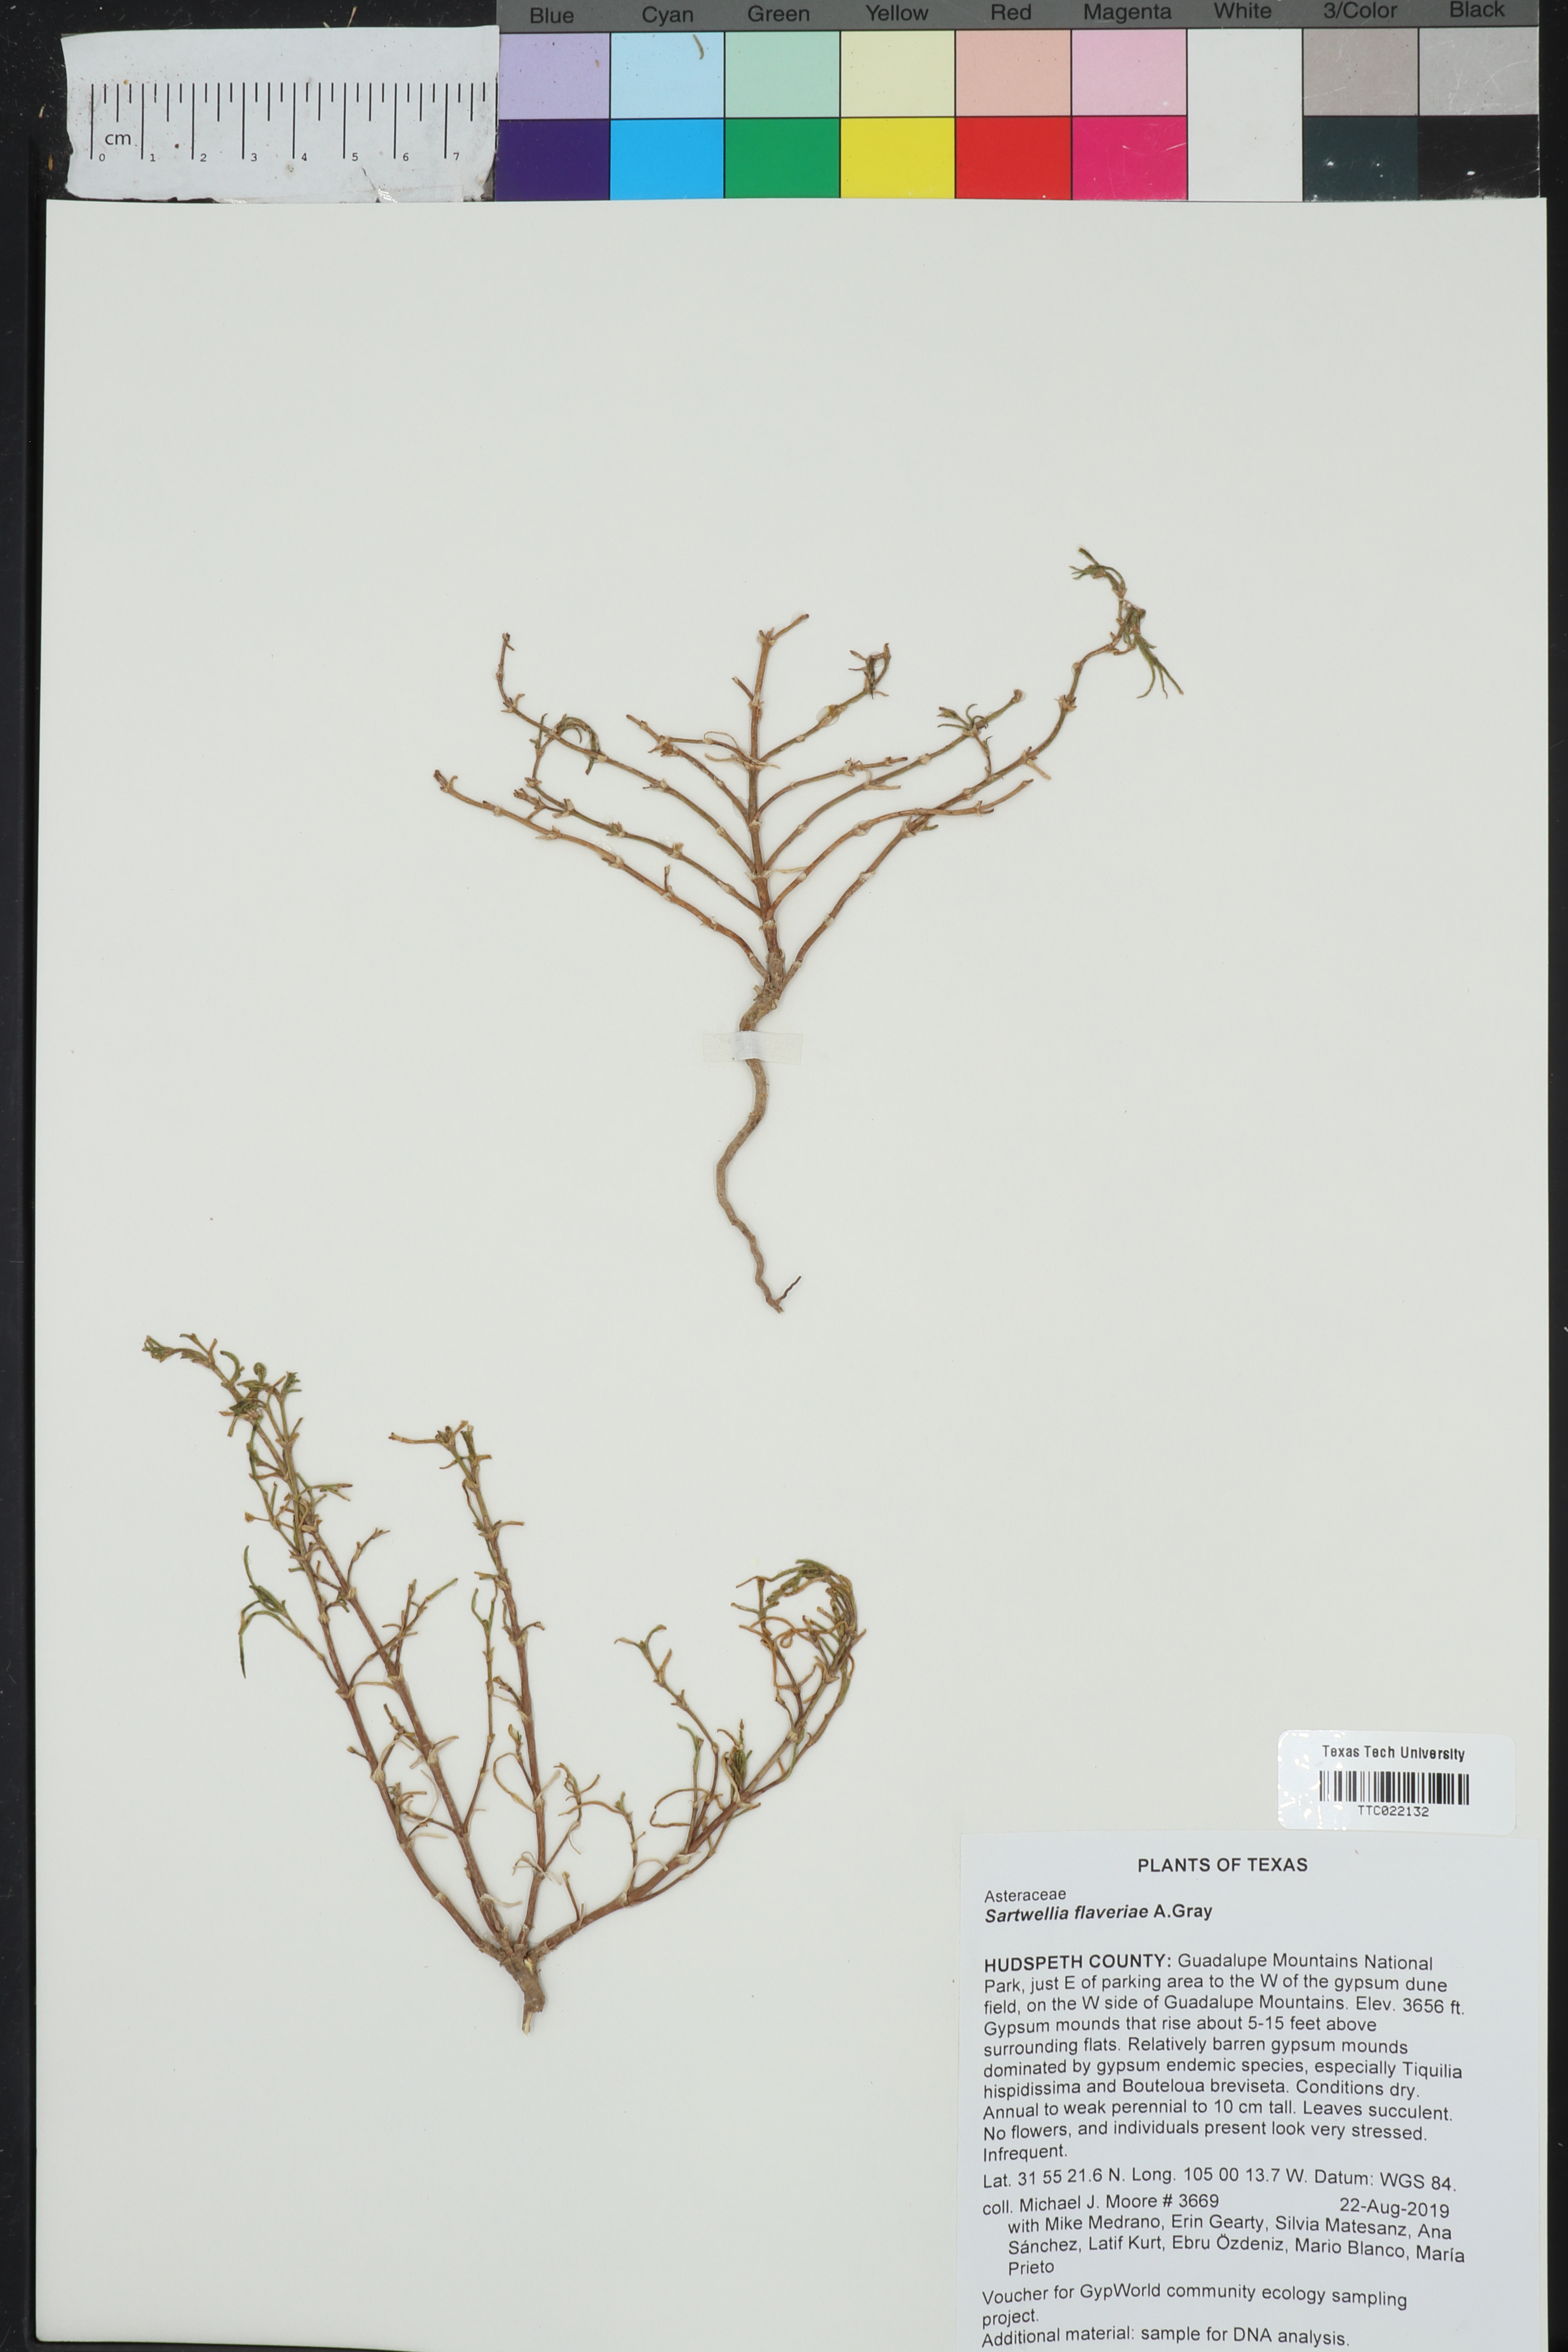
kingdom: Plantae
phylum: Tracheophyta
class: Magnoliopsida
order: Asterales
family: Asteraceae
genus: Sartwellia
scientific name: Sartwellia flaveriae
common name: Sartwellia
